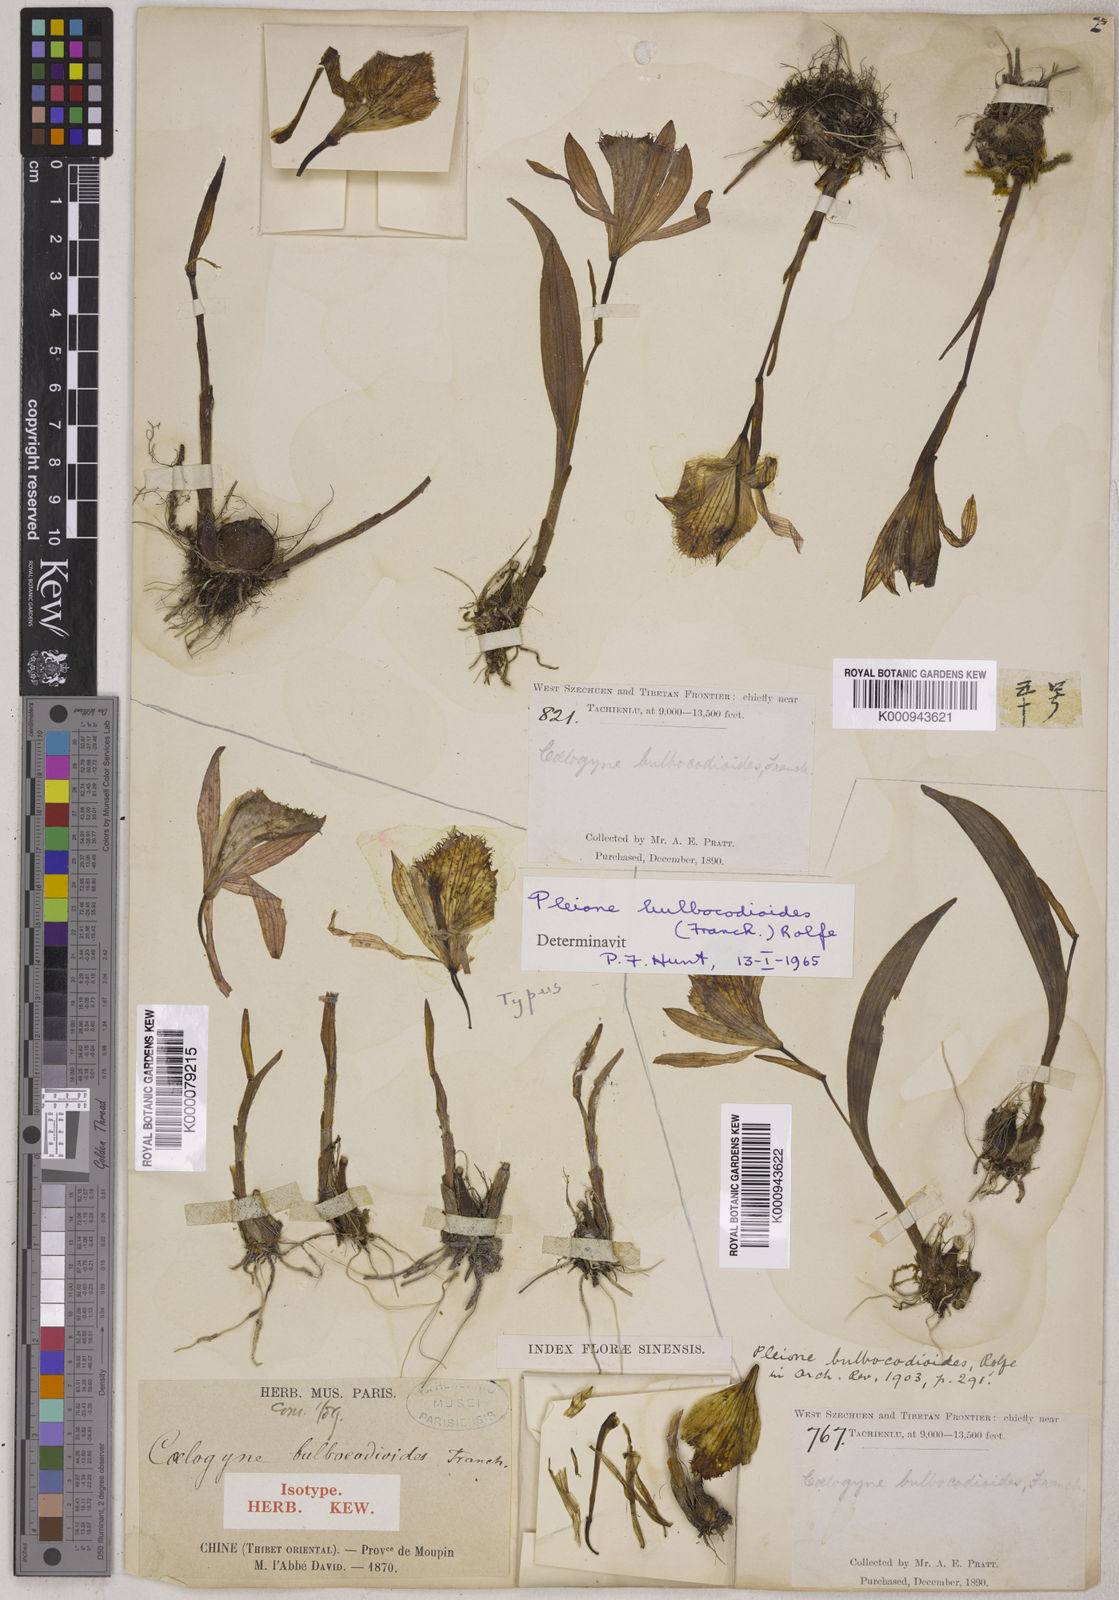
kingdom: Plantae
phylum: Tracheophyta
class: Liliopsida
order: Asparagales
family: Orchidaceae
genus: Pleione
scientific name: Pleione bulbocodioides
